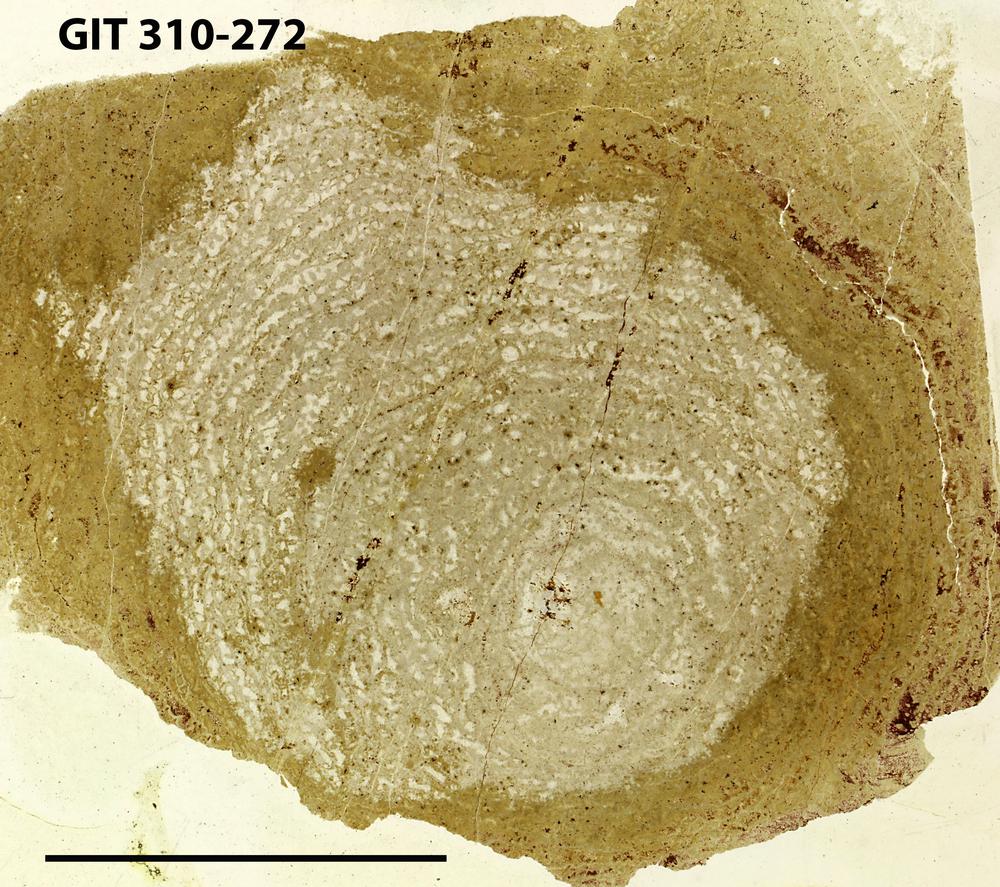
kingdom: Animalia
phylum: Porifera
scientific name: Porifera
